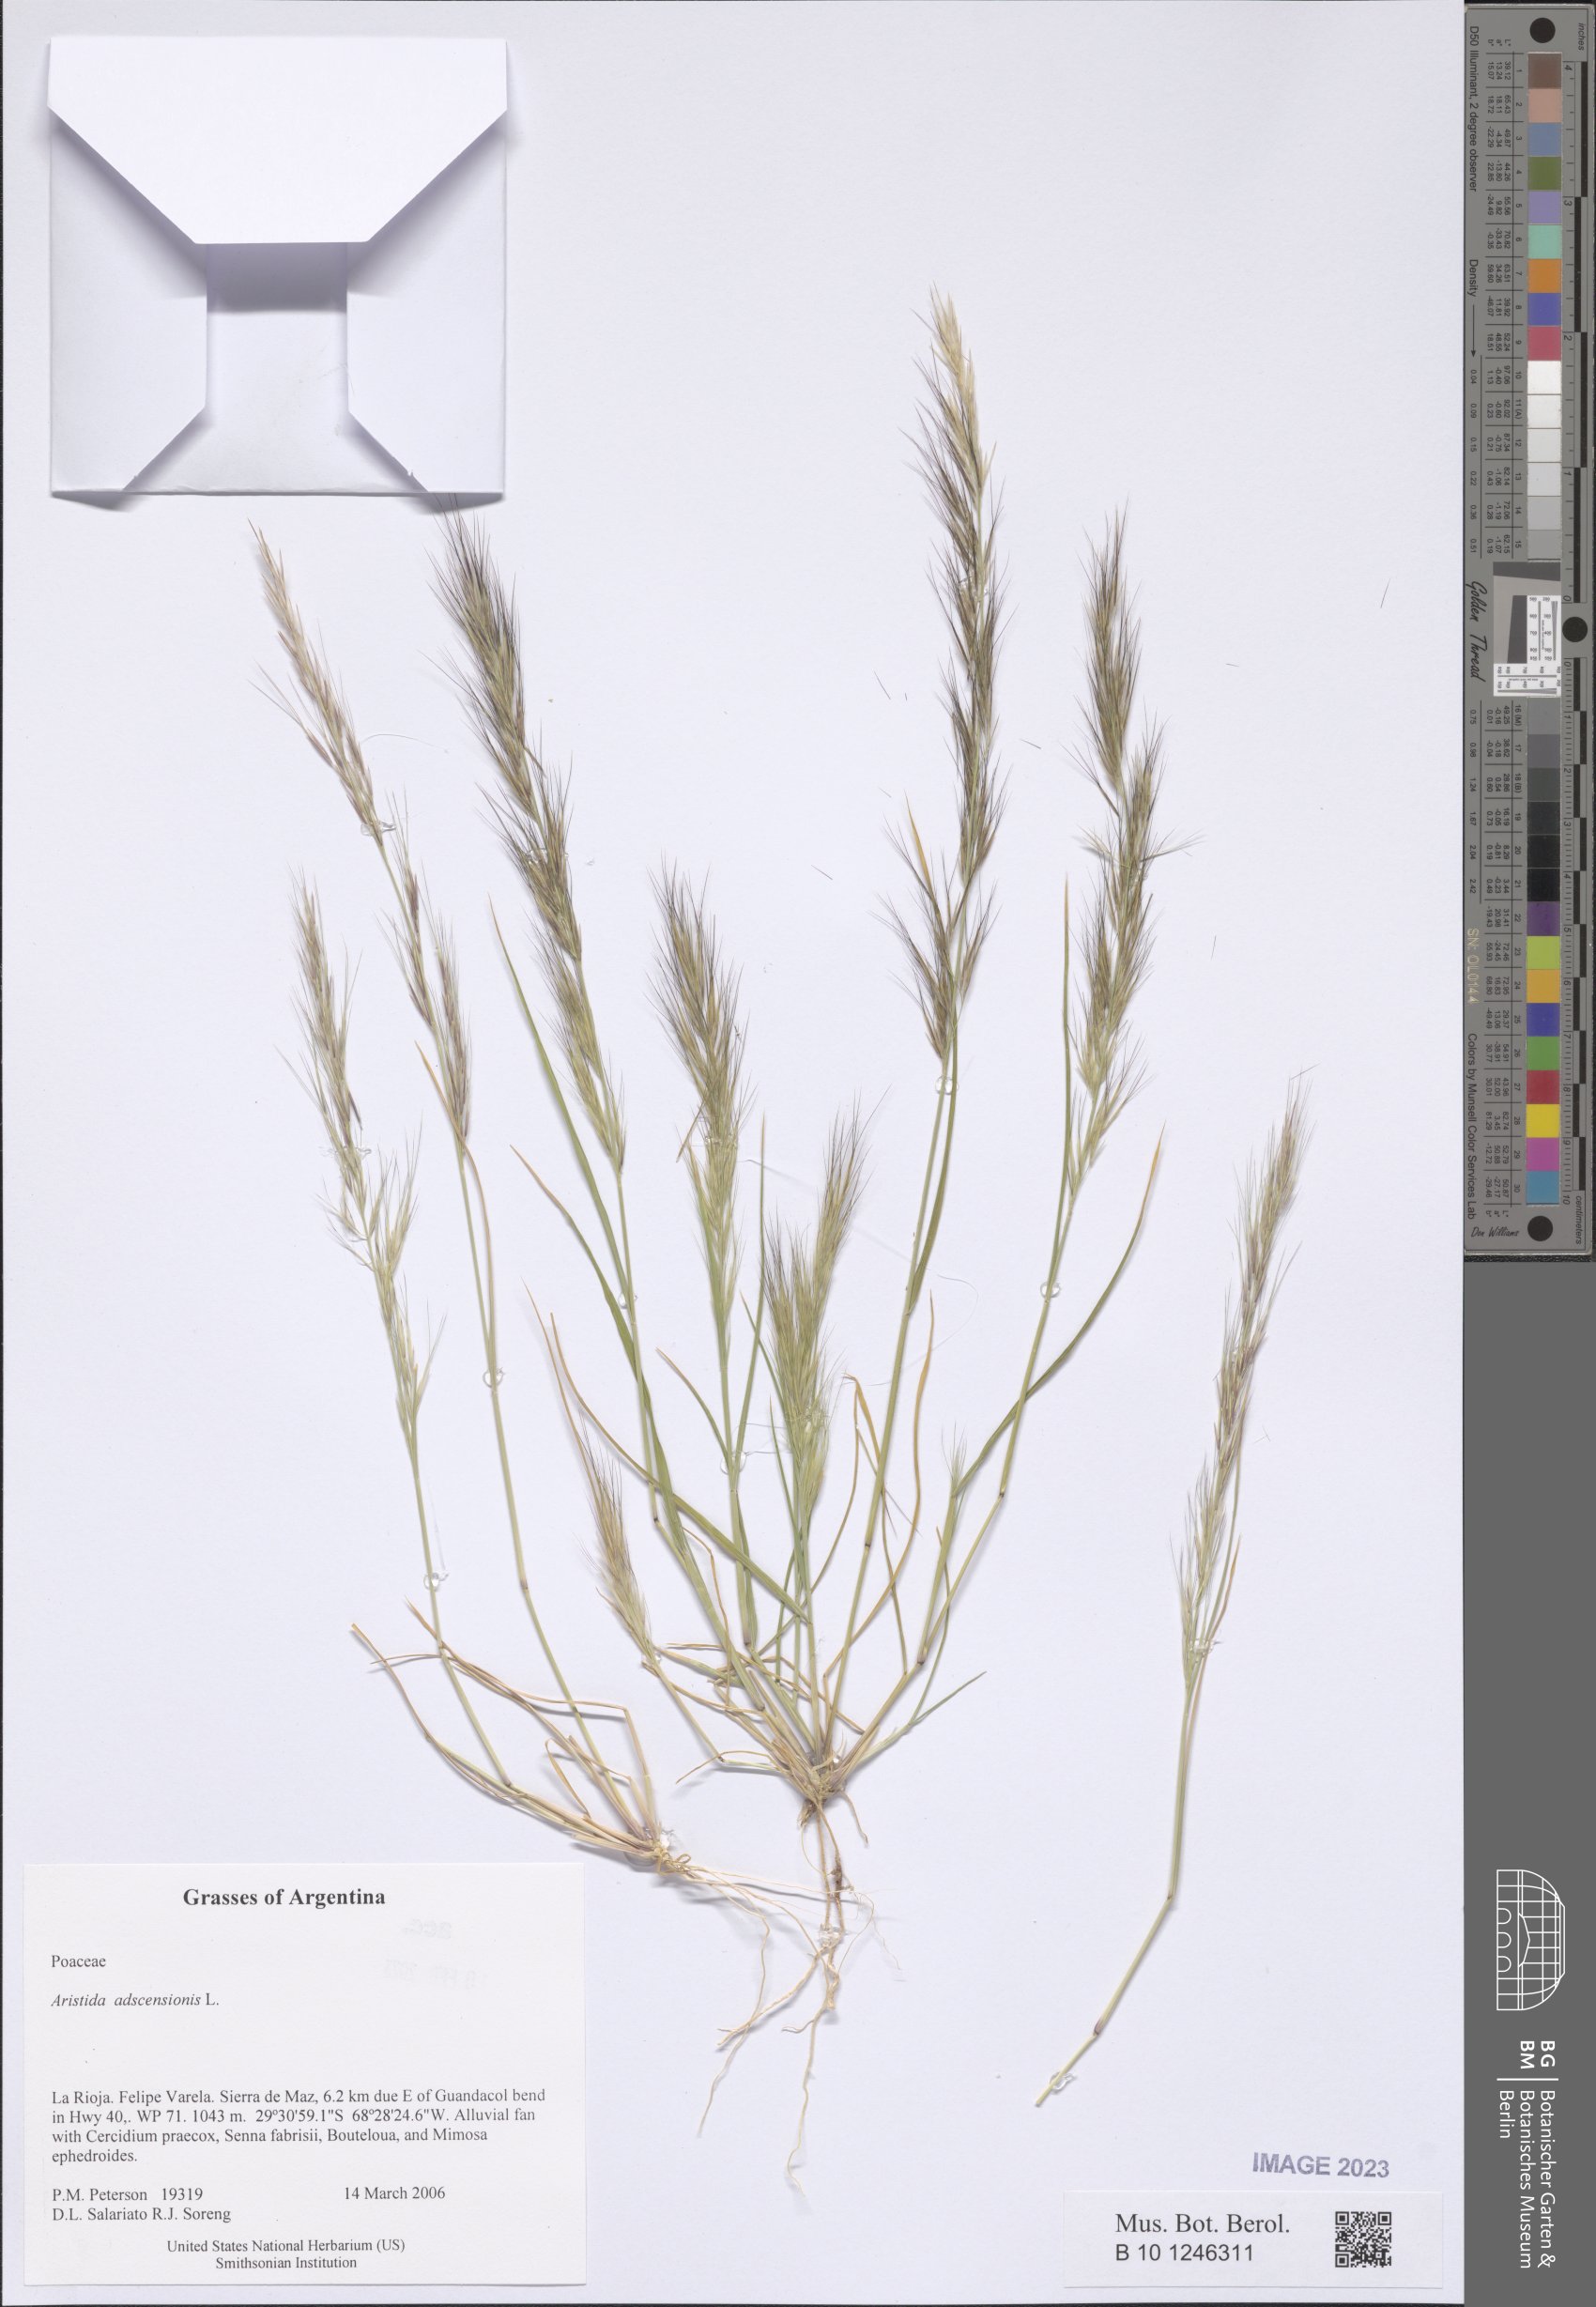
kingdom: Plantae
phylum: Tracheophyta
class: Liliopsida
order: Poales
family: Poaceae
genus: Aristida
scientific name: Aristida adscensionis
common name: Sixweeks threeawn
